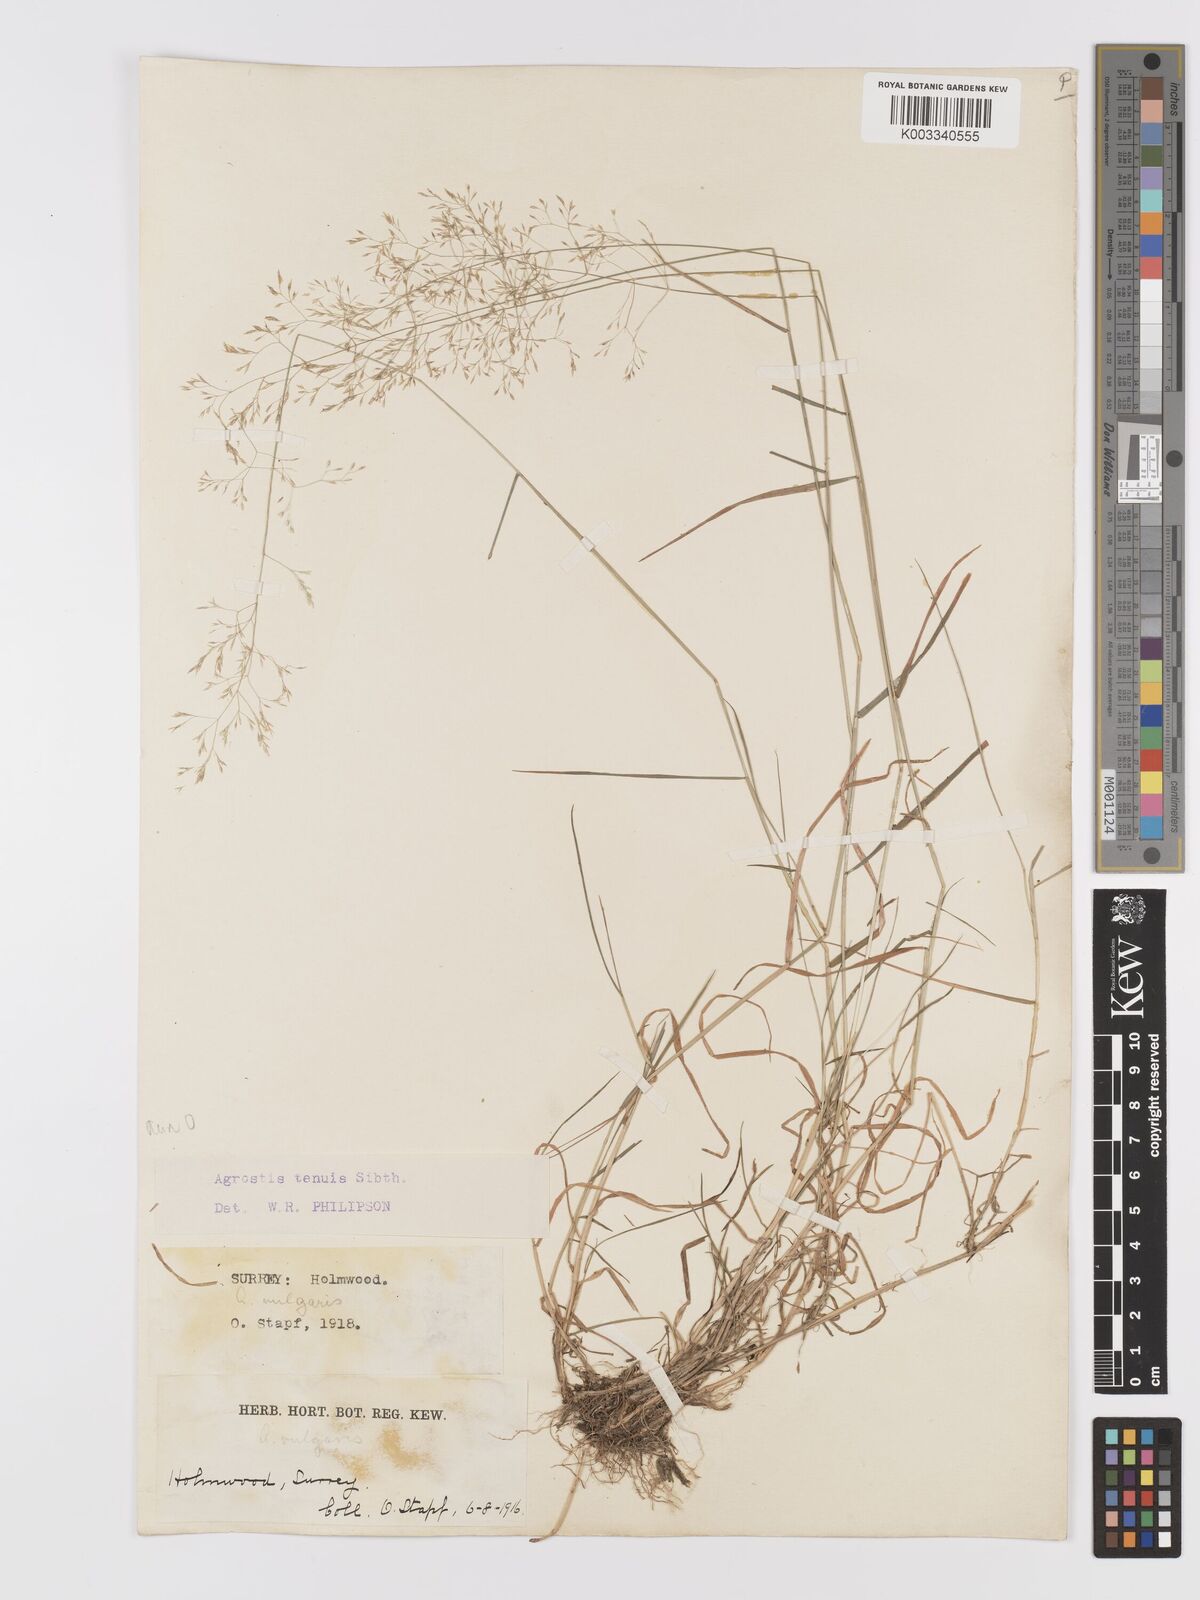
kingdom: Plantae
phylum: Tracheophyta
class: Liliopsida
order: Poales
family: Poaceae
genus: Agrostis
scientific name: Agrostis capillaris
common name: Colonial bentgrass
